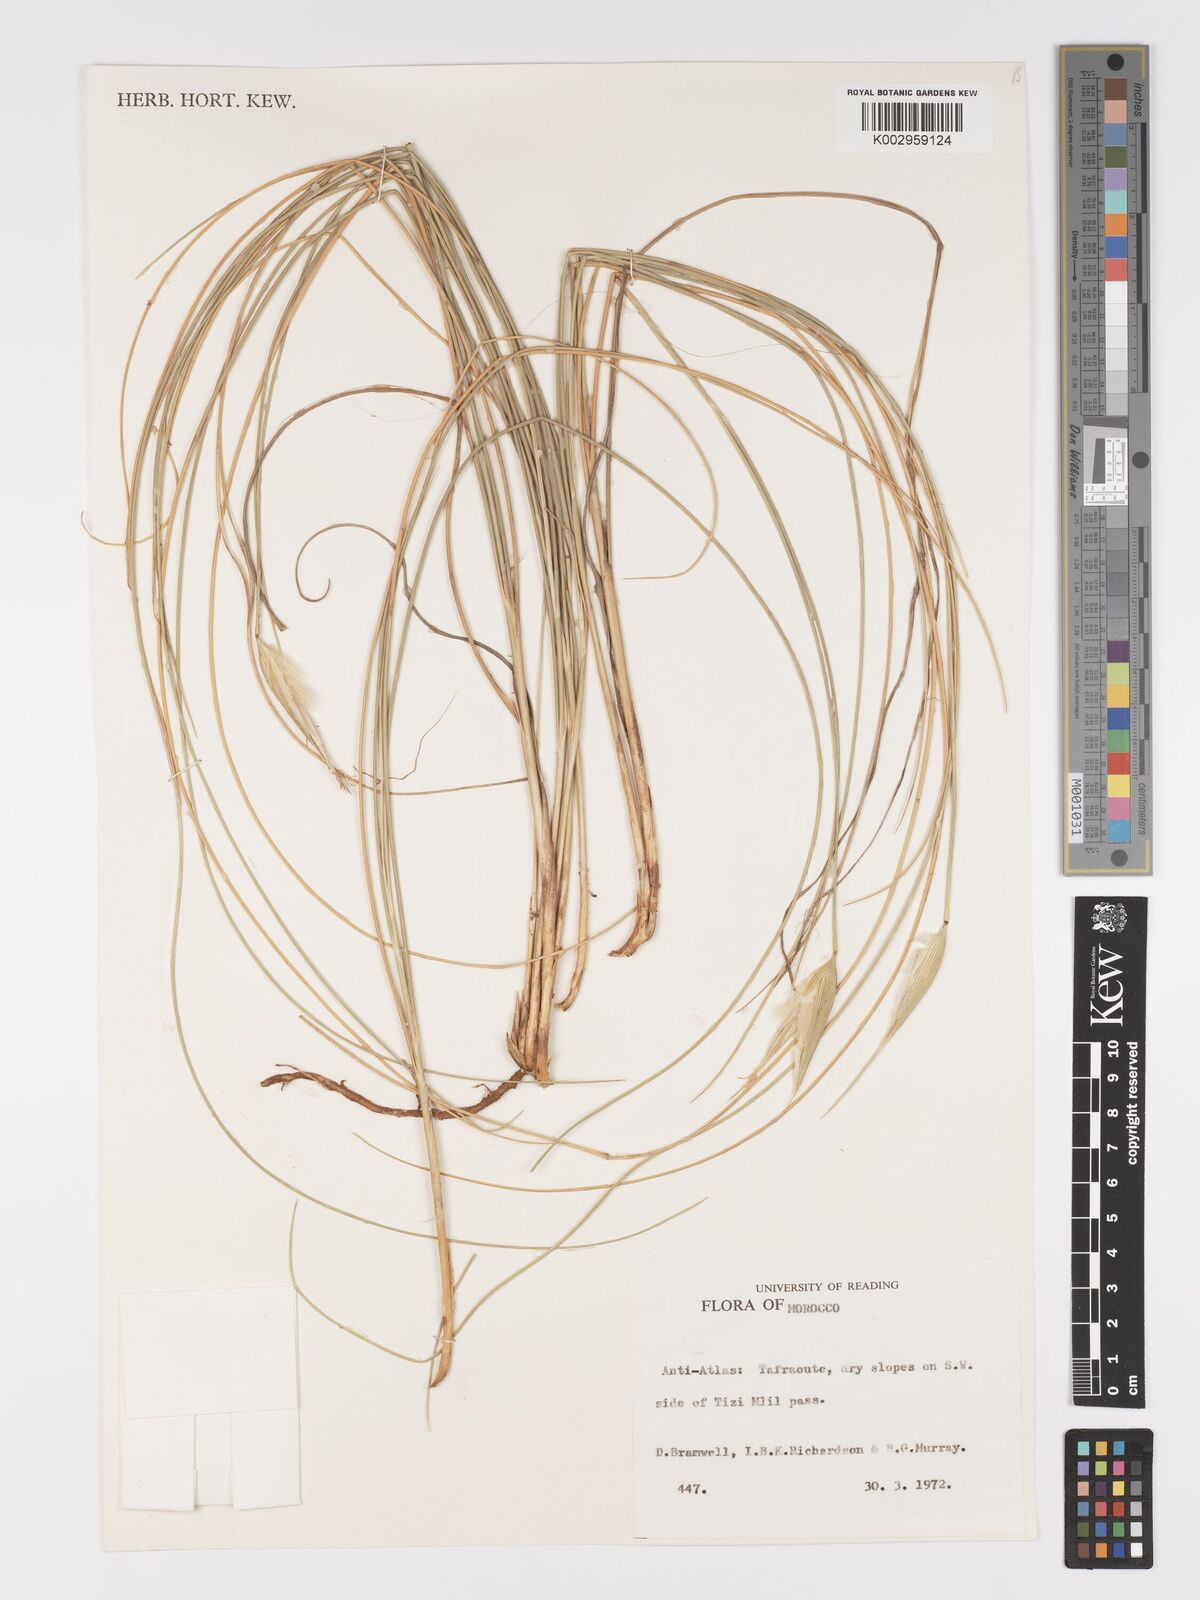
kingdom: Plantae
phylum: Tracheophyta
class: Liliopsida
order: Poales
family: Poaceae
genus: Lygeum
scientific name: Lygeum spartum
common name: Albardine
